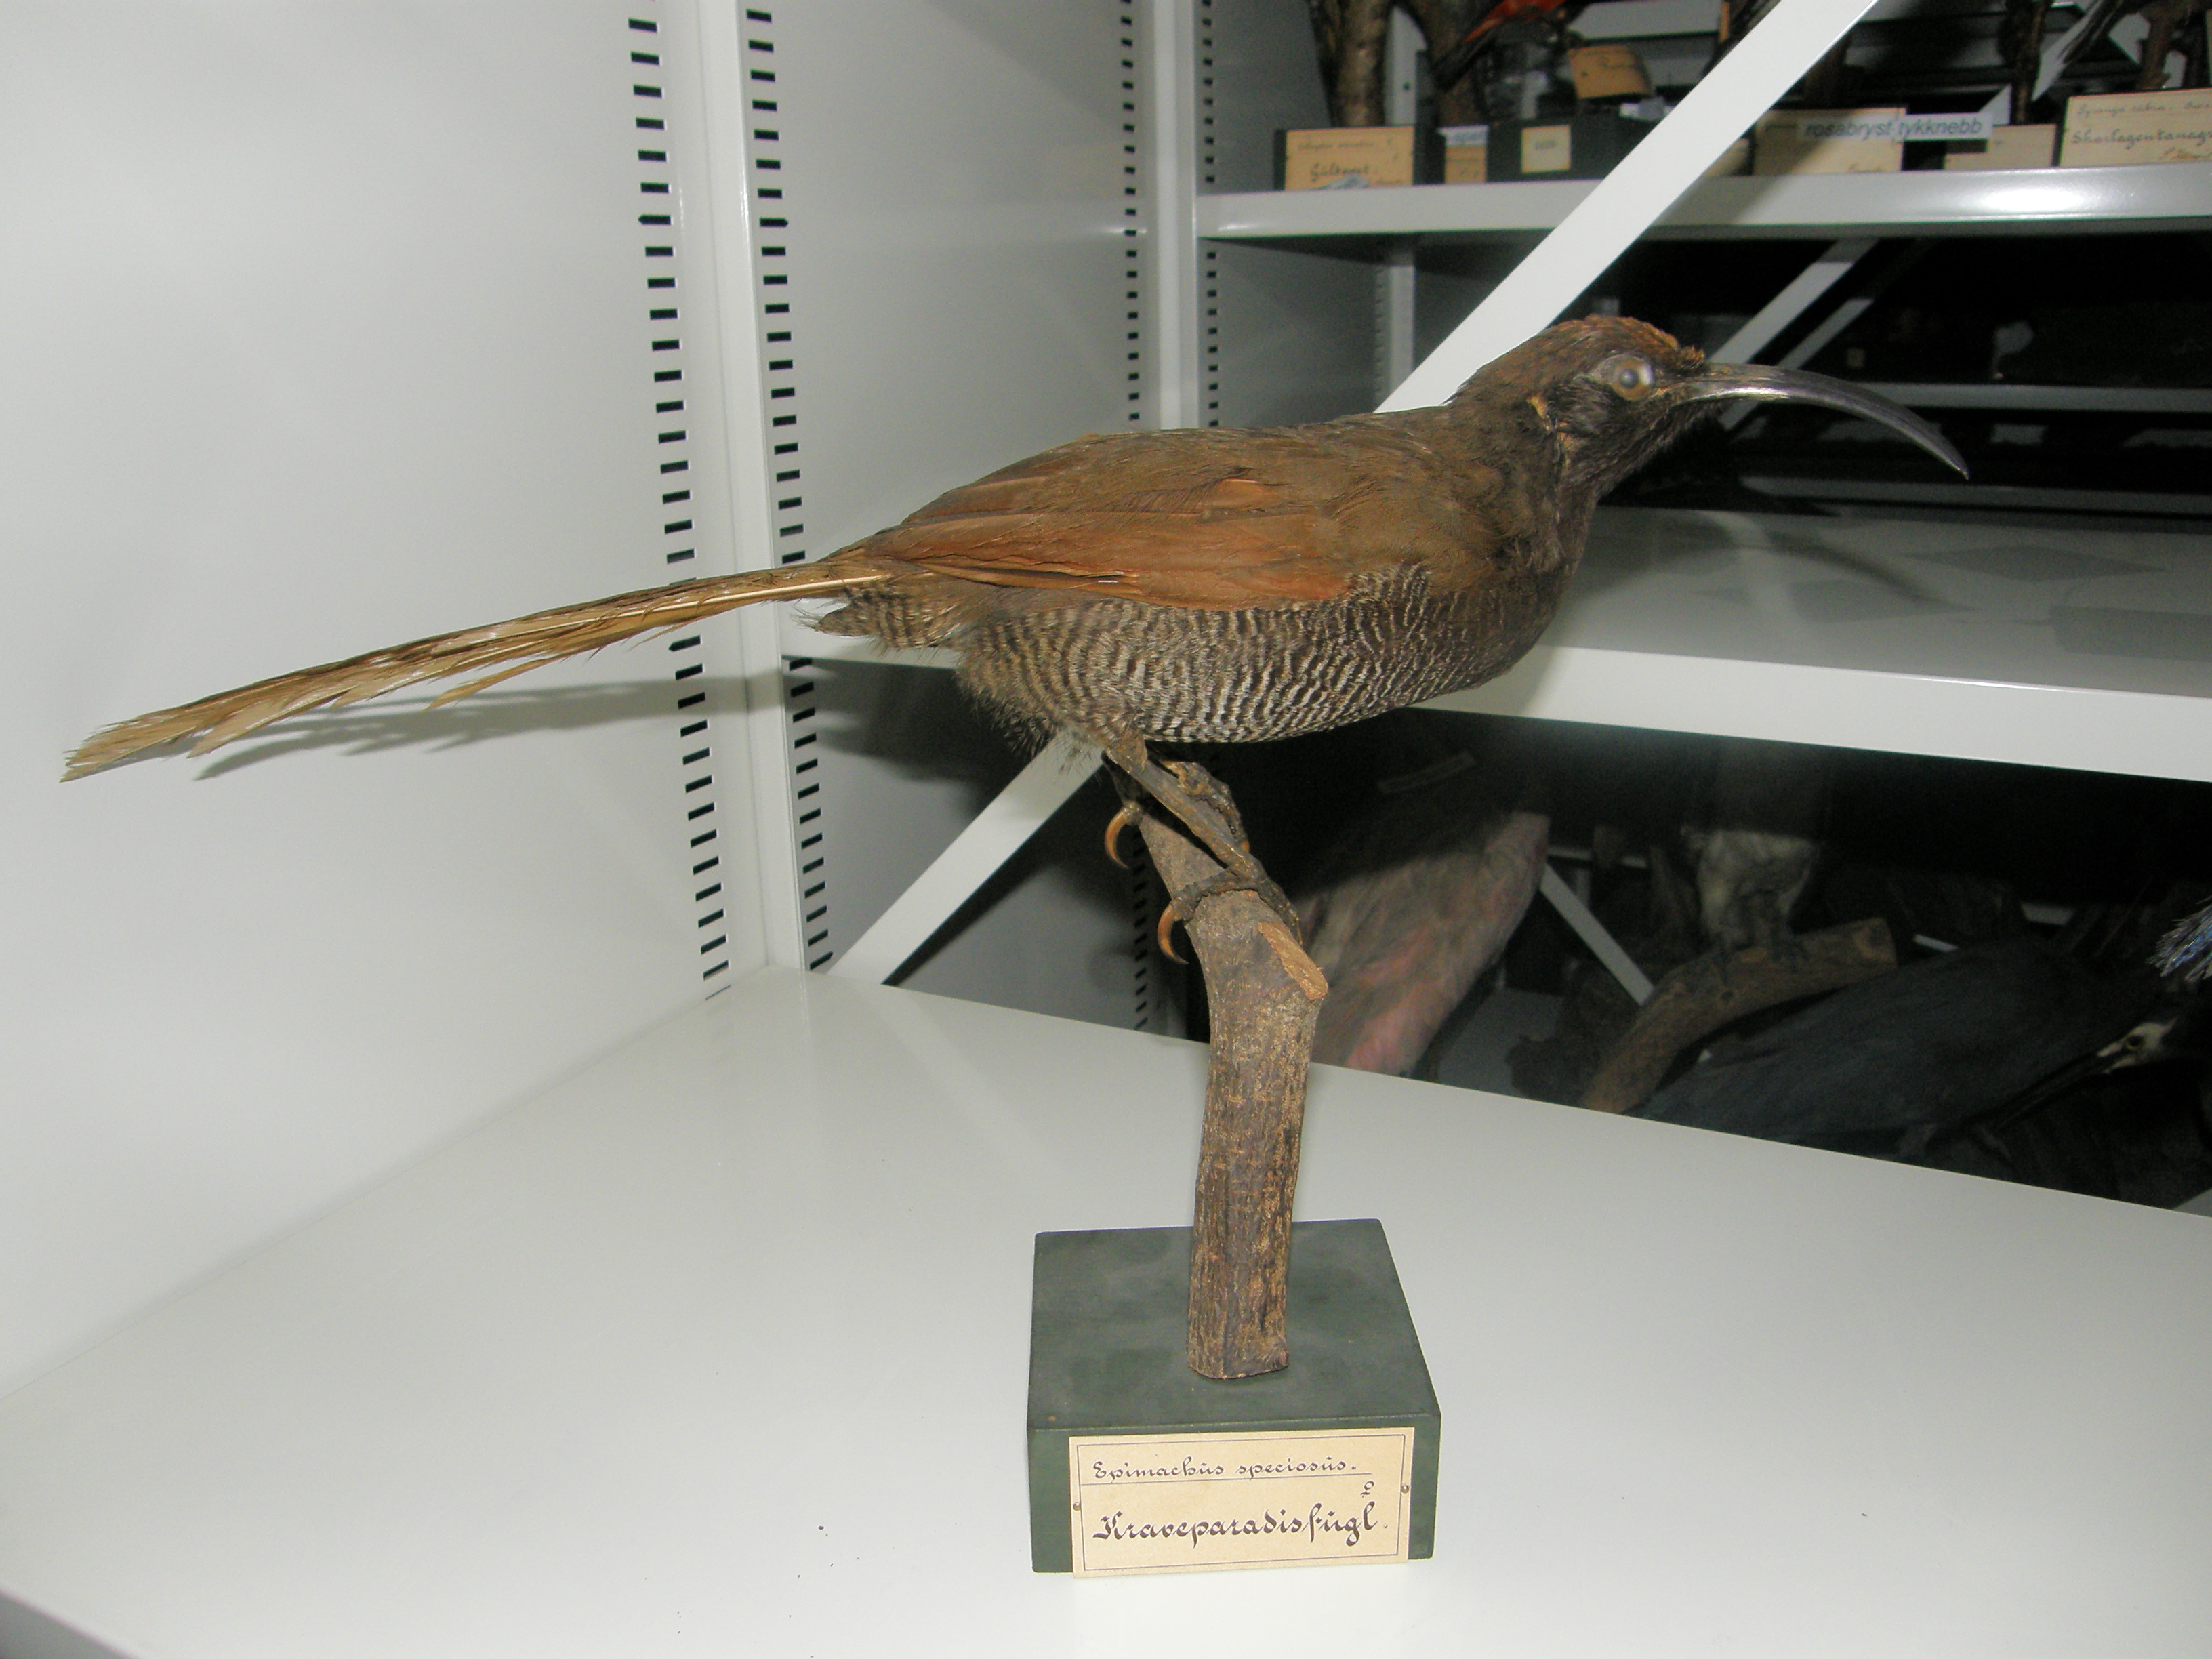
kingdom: Animalia
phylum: Chordata
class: Aves
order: Passeriformes
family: Paradisaeidae
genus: Epimachus
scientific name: Epimachus fastosus
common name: Black sicklebill
